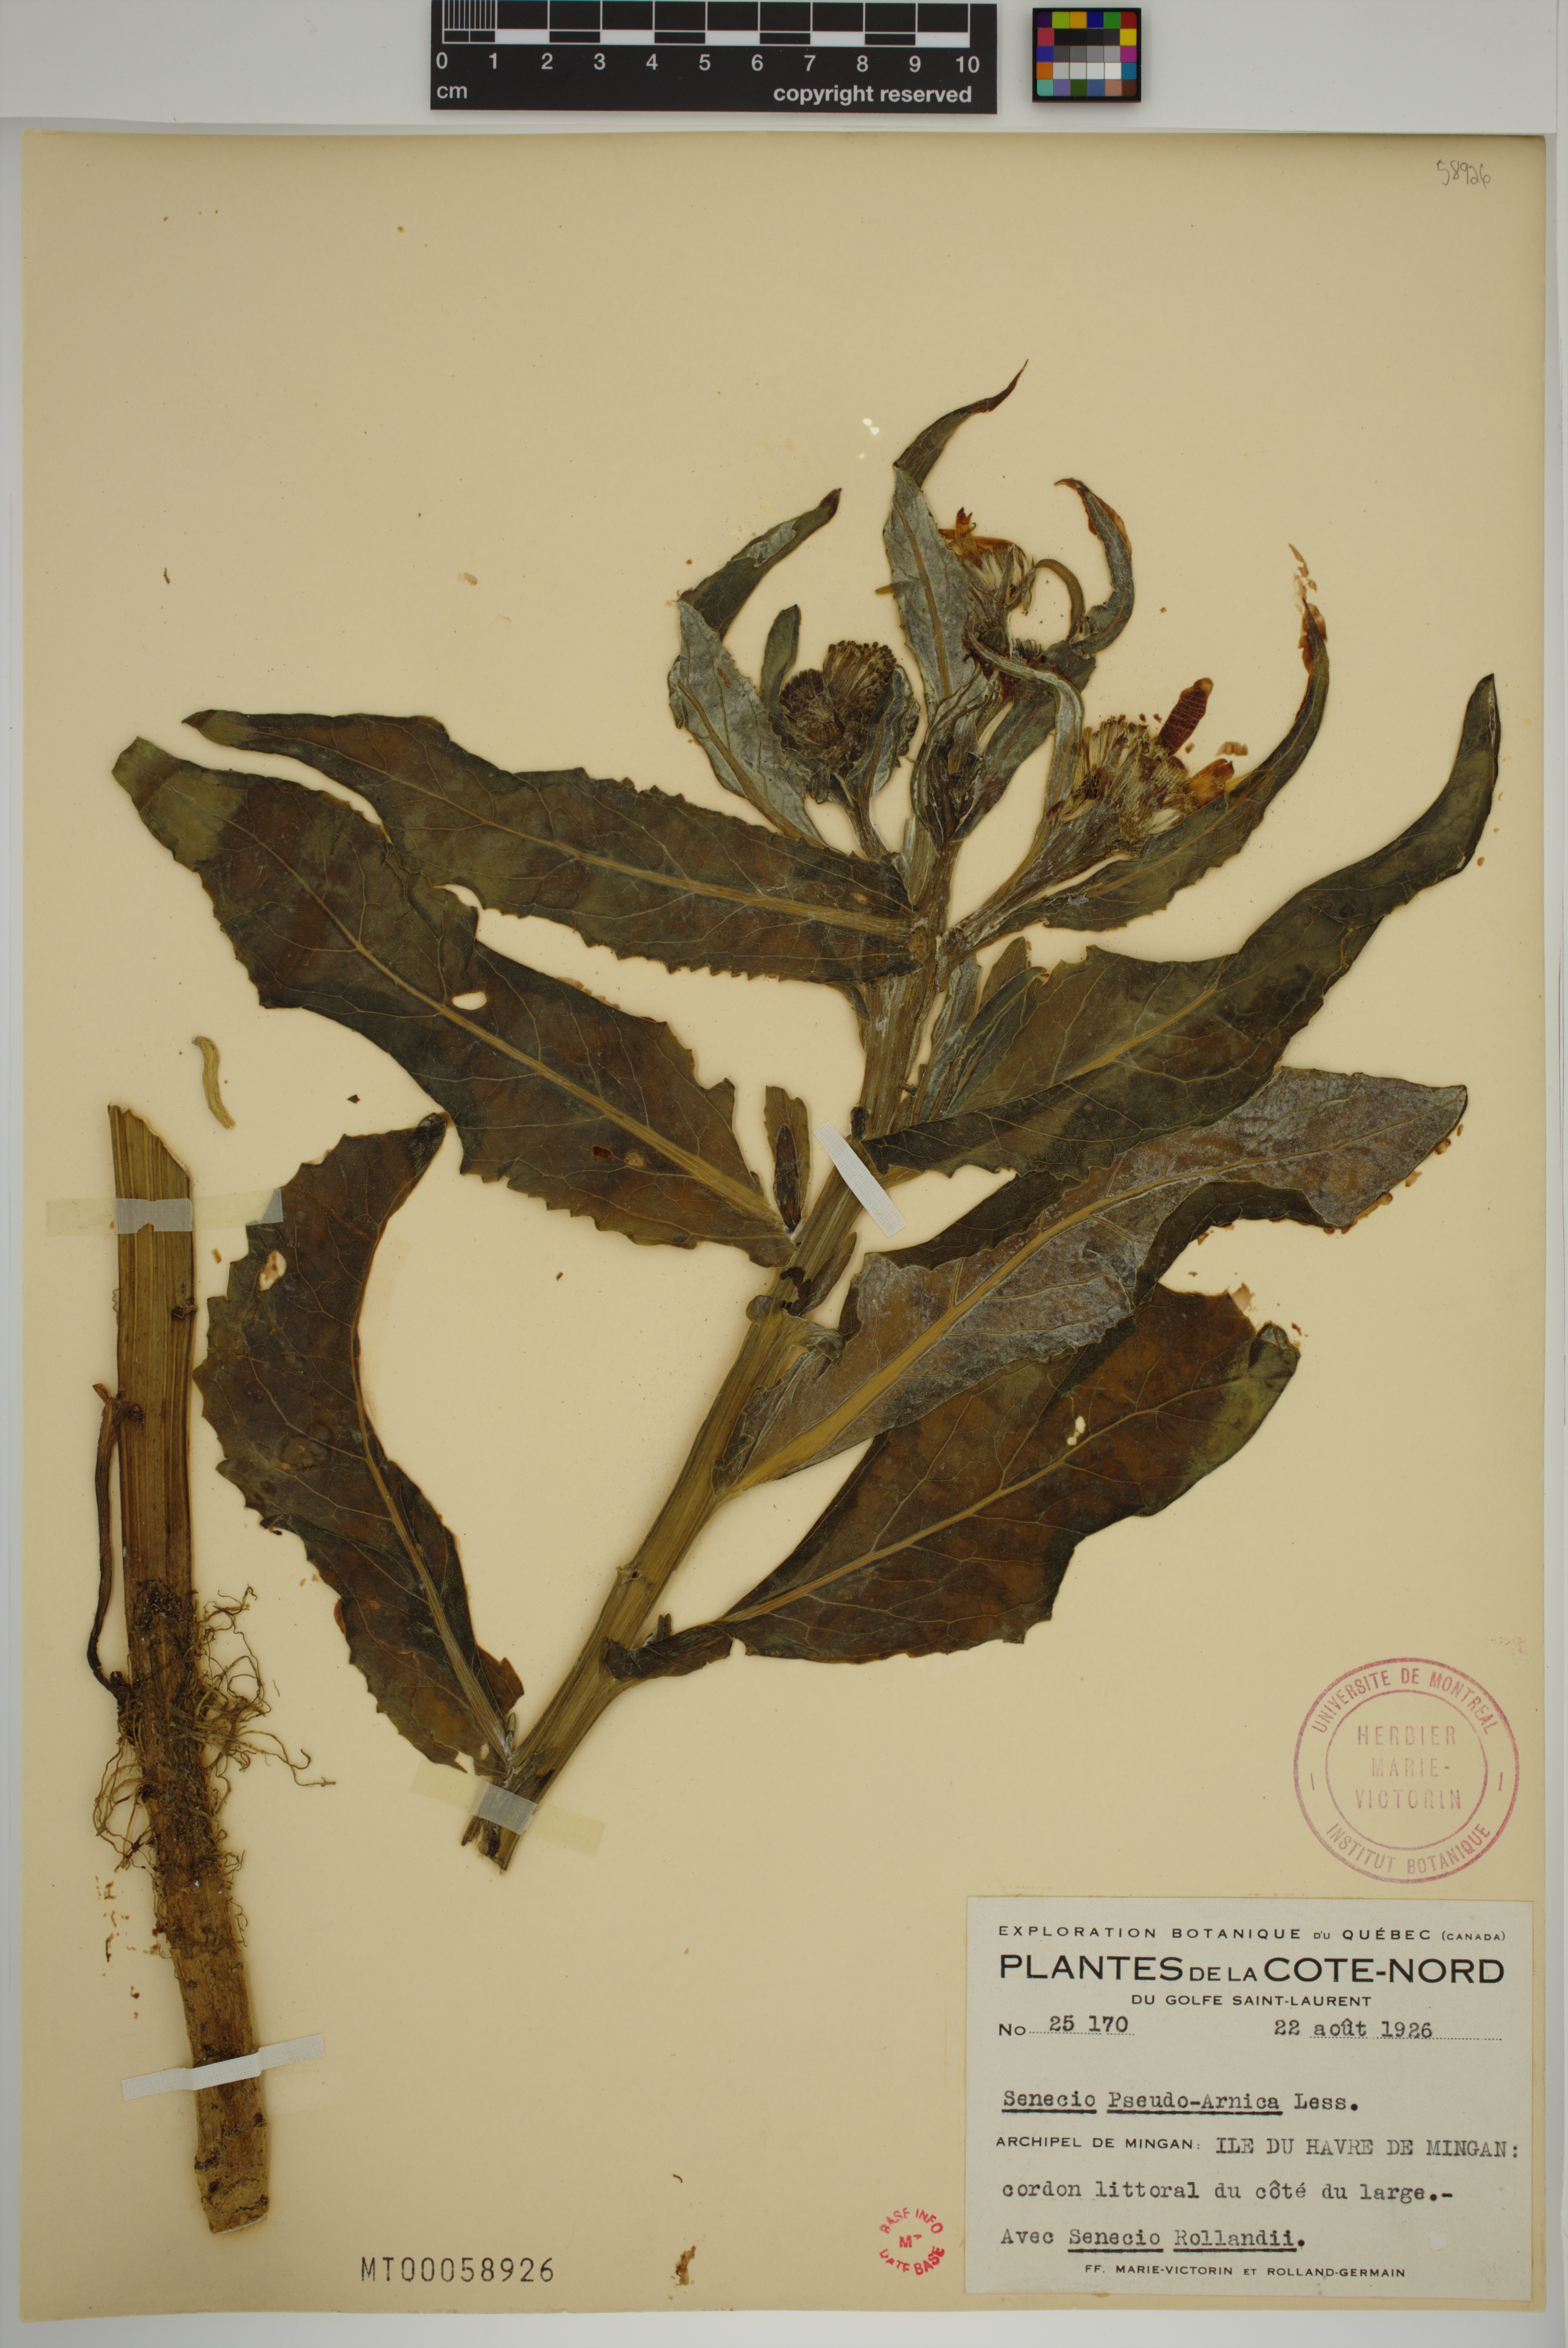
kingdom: Plantae
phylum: Tracheophyta
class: Magnoliopsida
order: Asterales
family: Asteraceae
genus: Jacobaea
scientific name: Jacobaea pseudoarnica
